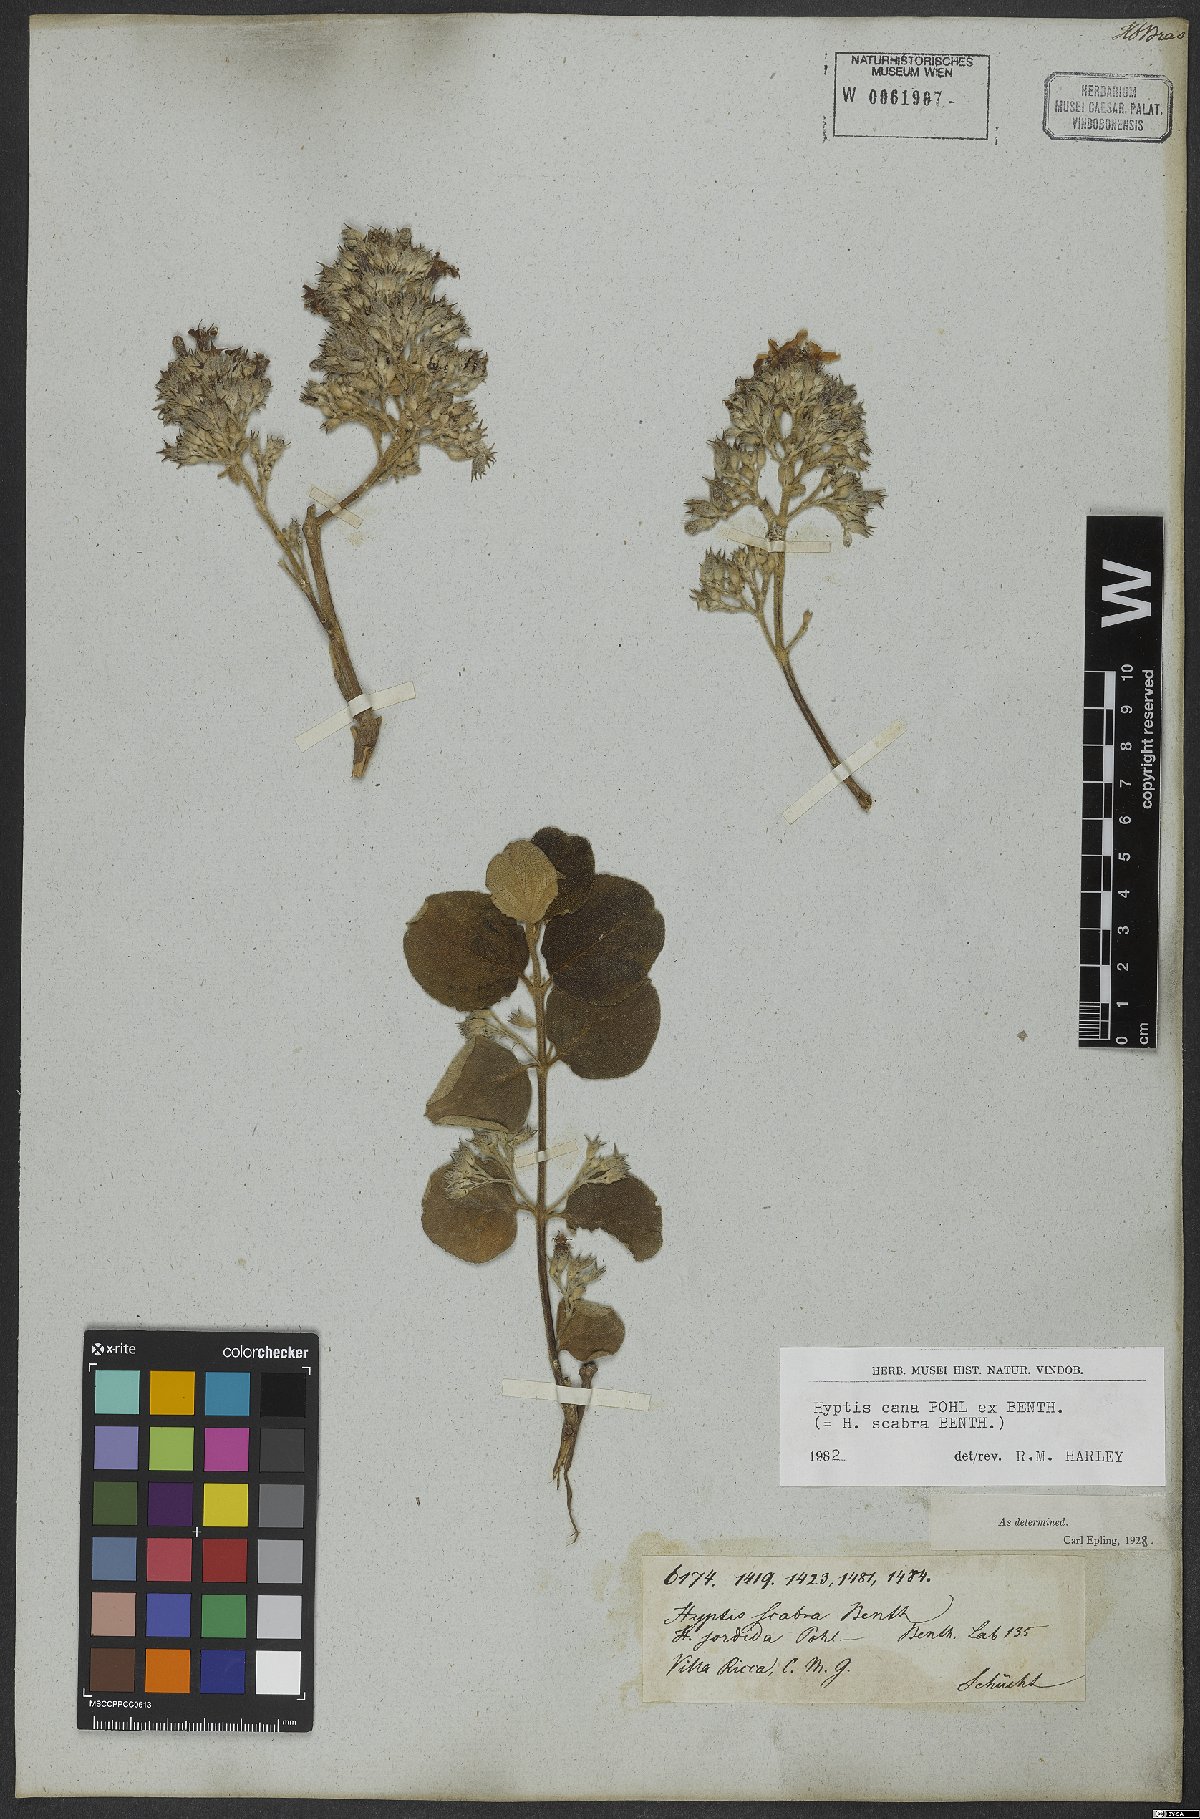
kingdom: Plantae
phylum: Tracheophyta
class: Magnoliopsida
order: Lamiales
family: Lamiaceae
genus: Hyptidendron
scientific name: Hyptidendron canum
